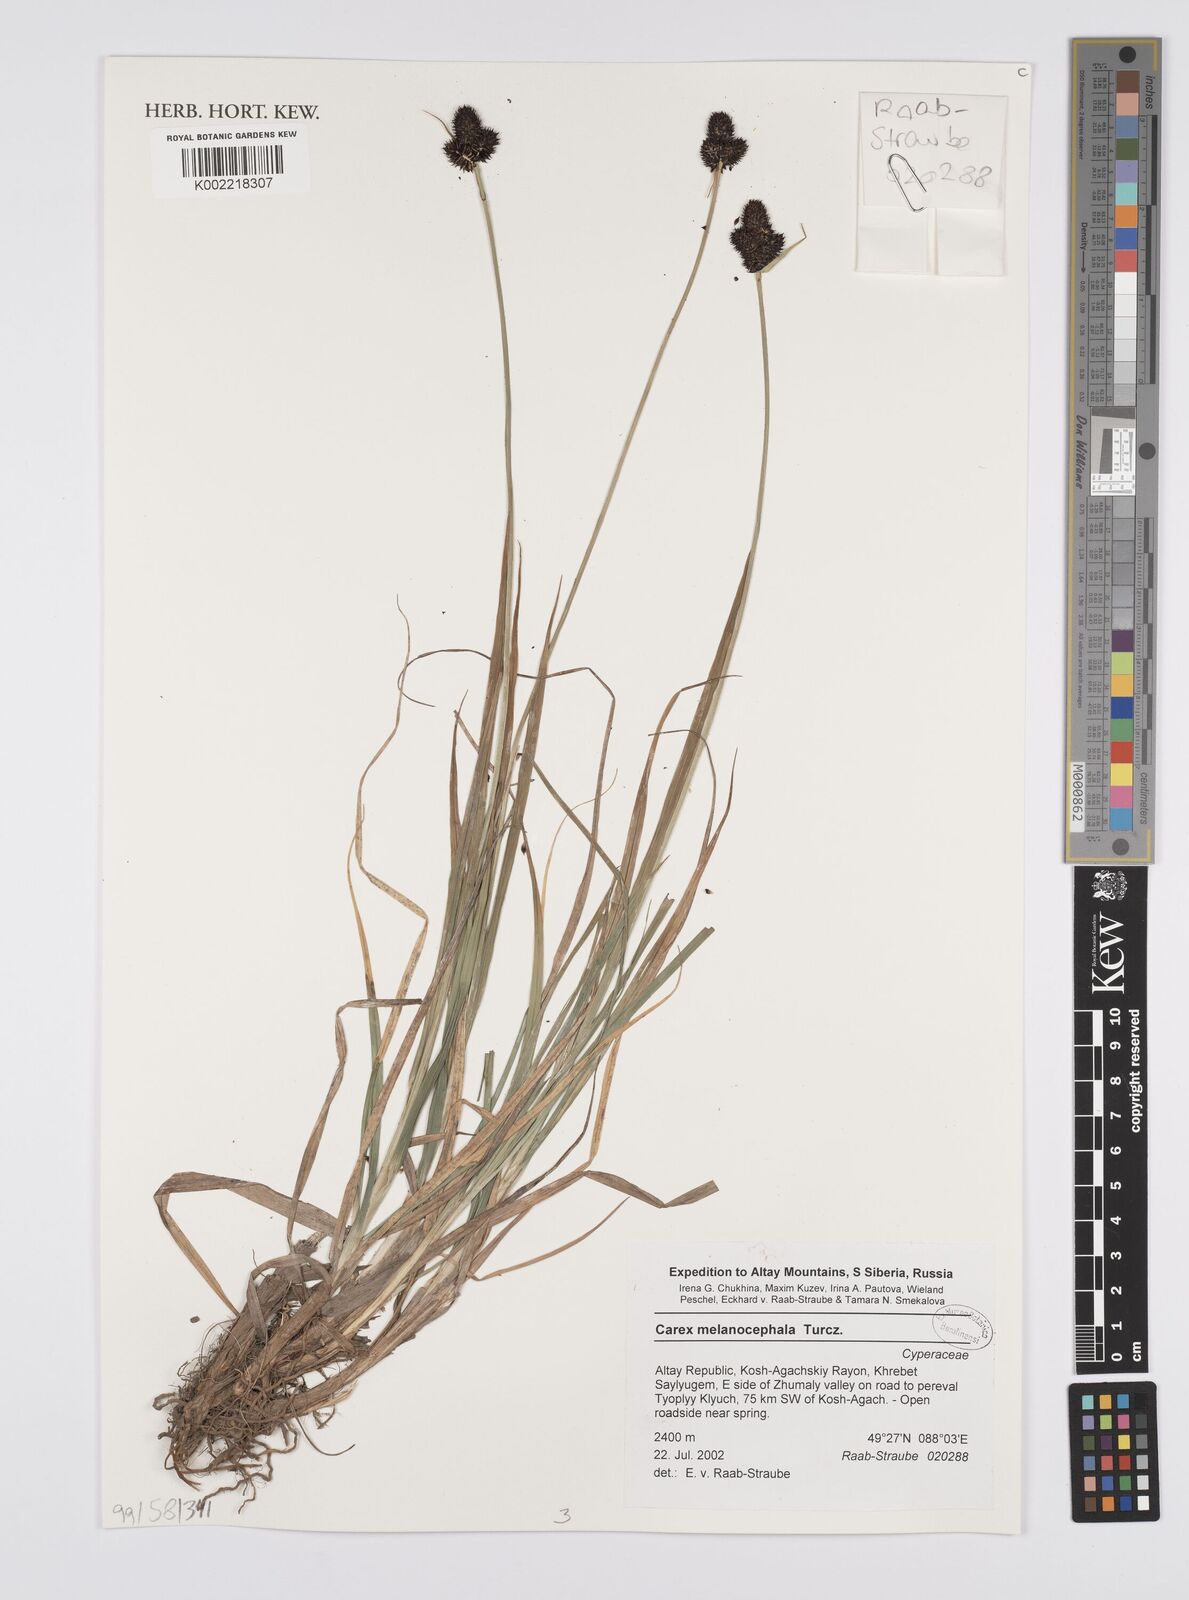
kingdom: Plantae
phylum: Tracheophyta
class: Liliopsida
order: Poales
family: Cyperaceae
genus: Carex
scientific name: Carex melanocephala
